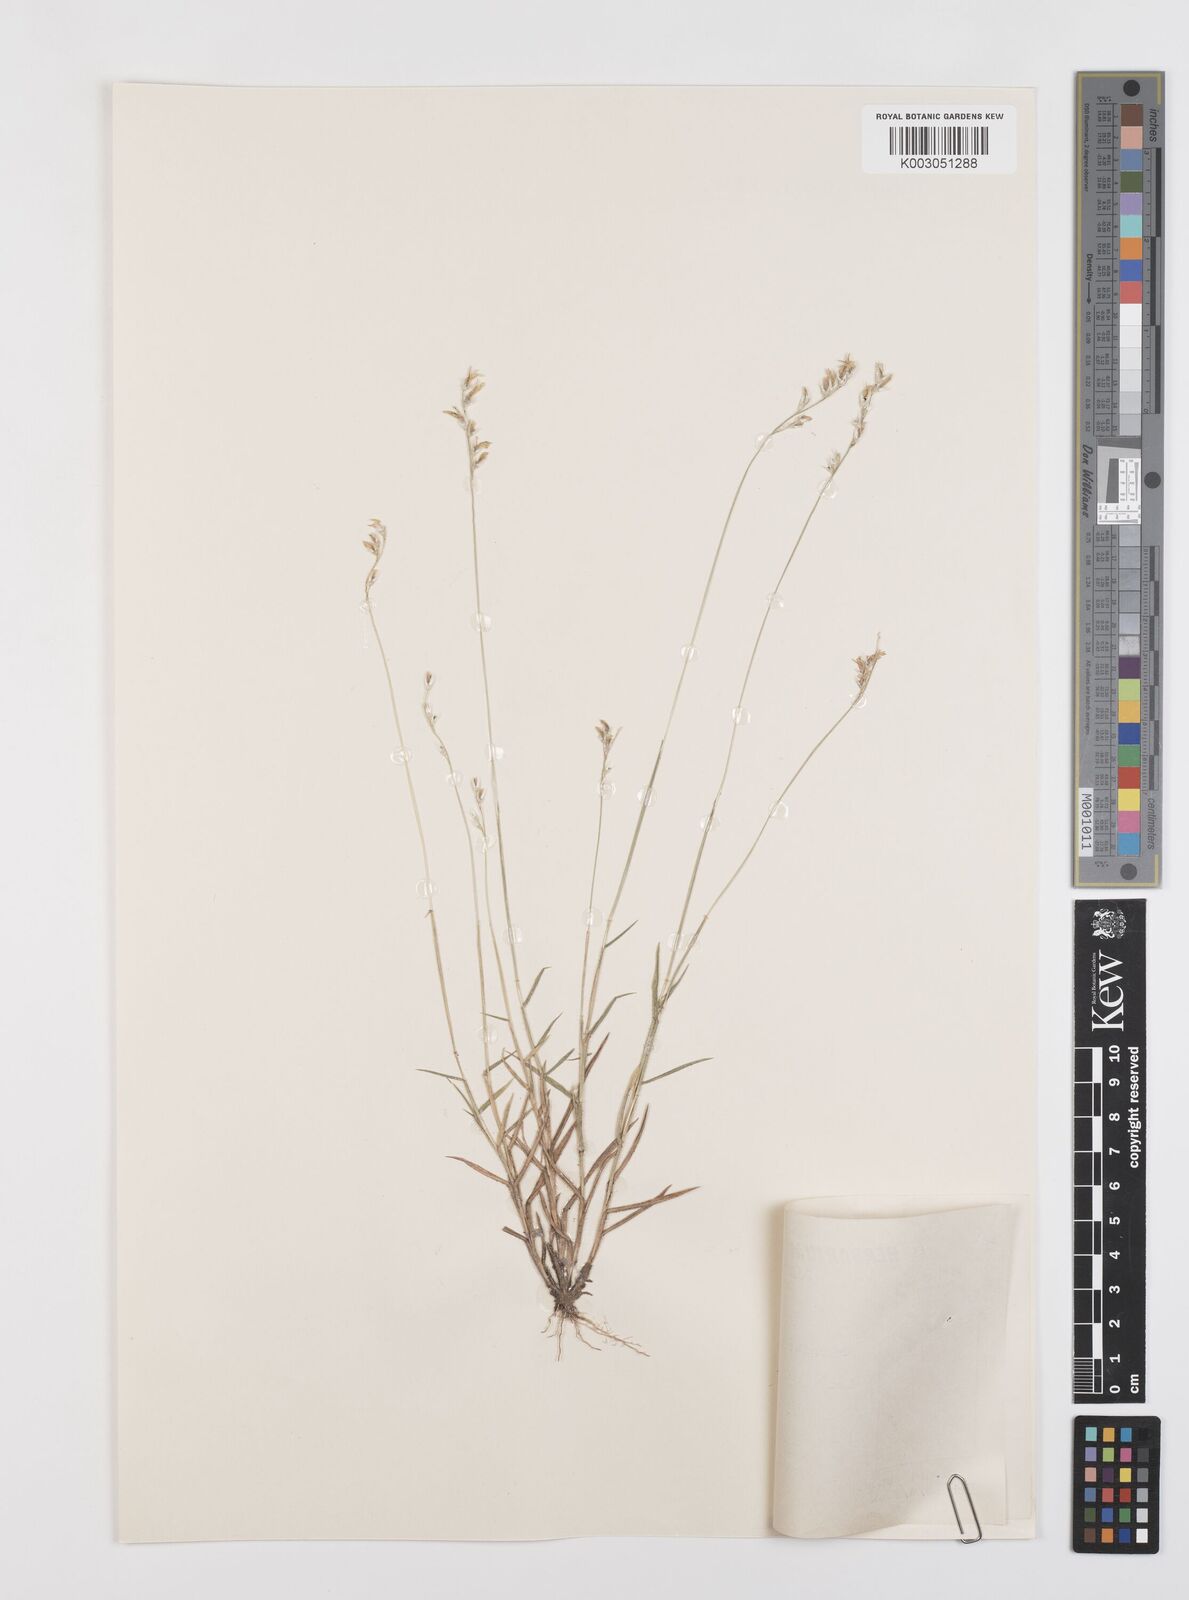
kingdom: Plantae
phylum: Tracheophyta
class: Liliopsida
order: Poales
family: Poaceae
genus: Urochloa
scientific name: Urochloa holosericea
